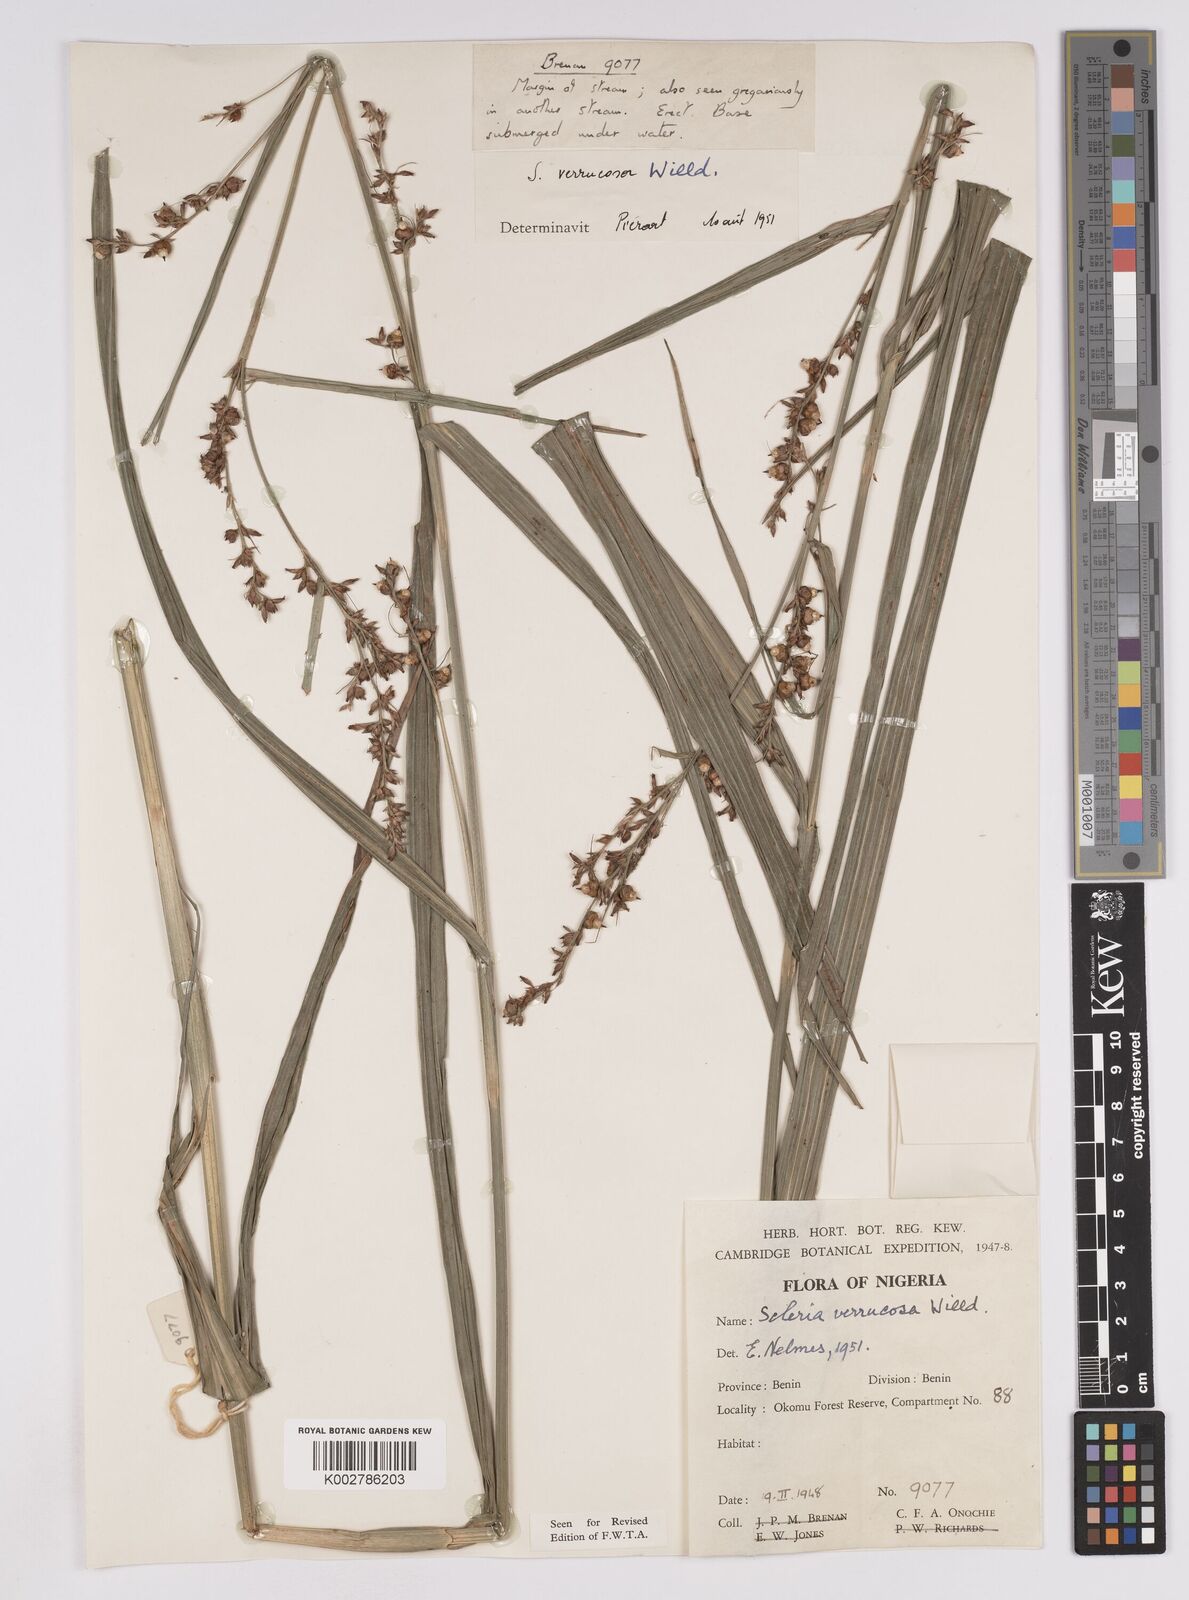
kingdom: Plantae
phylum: Tracheophyta
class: Liliopsida
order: Poales
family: Cyperaceae
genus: Scleria
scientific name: Scleria verrucosa
